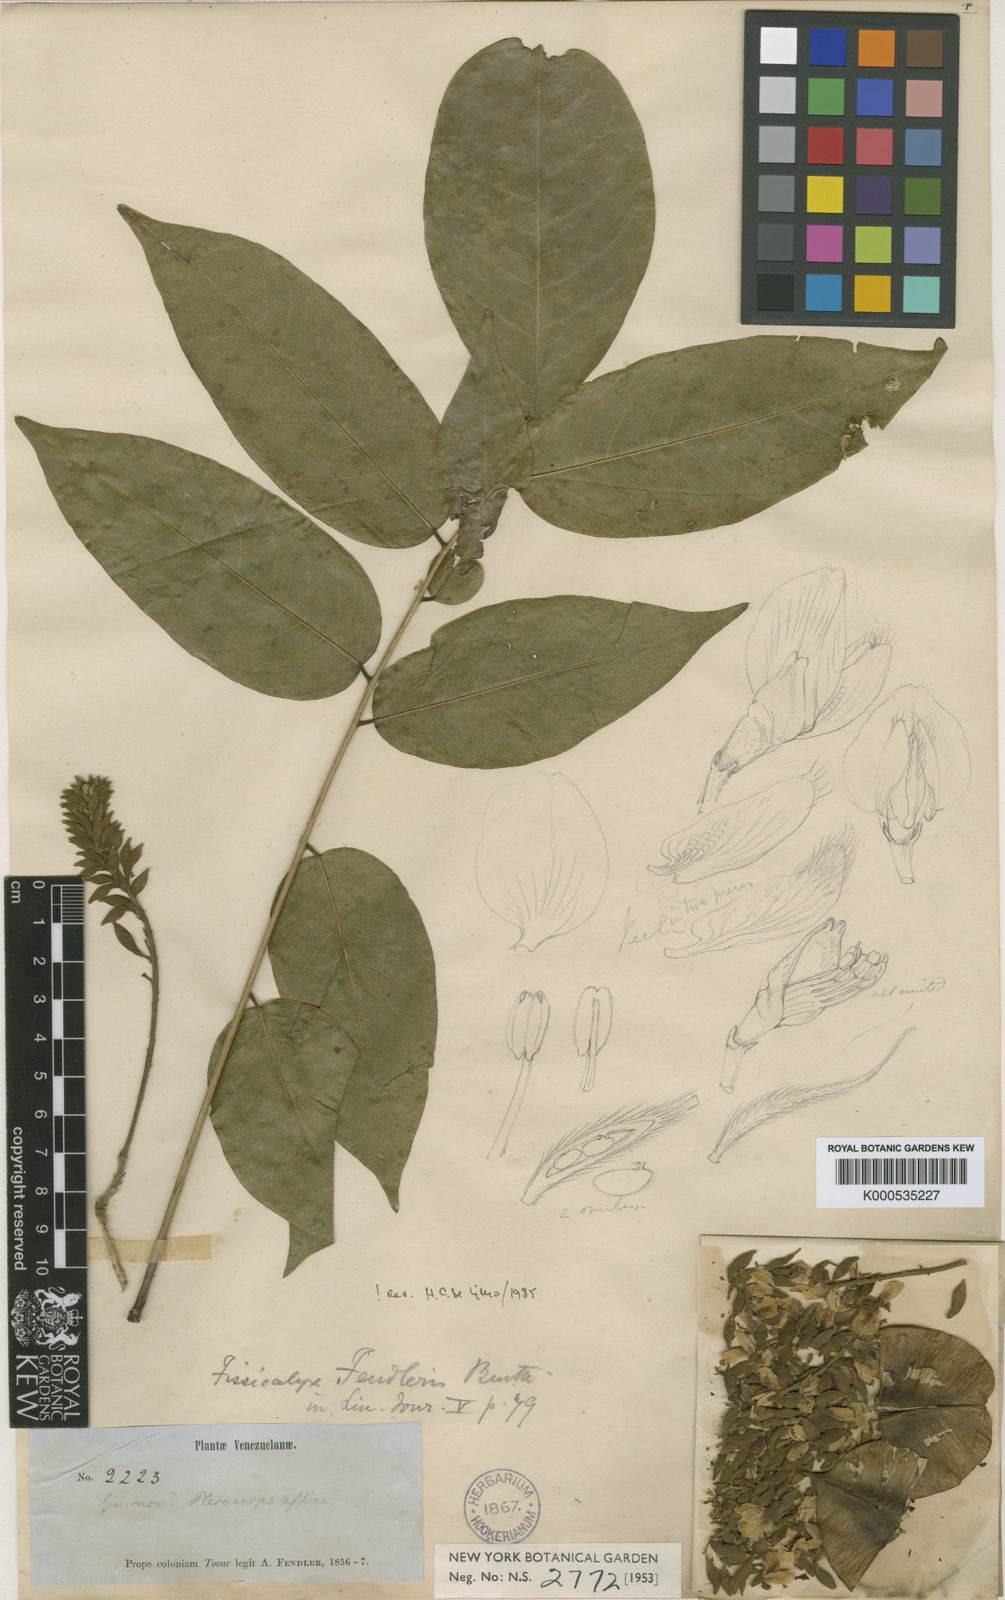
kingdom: Plantae
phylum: Tracheophyta
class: Magnoliopsida
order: Fabales
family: Fabaceae
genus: Fissicalyx
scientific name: Fissicalyx fendleri
